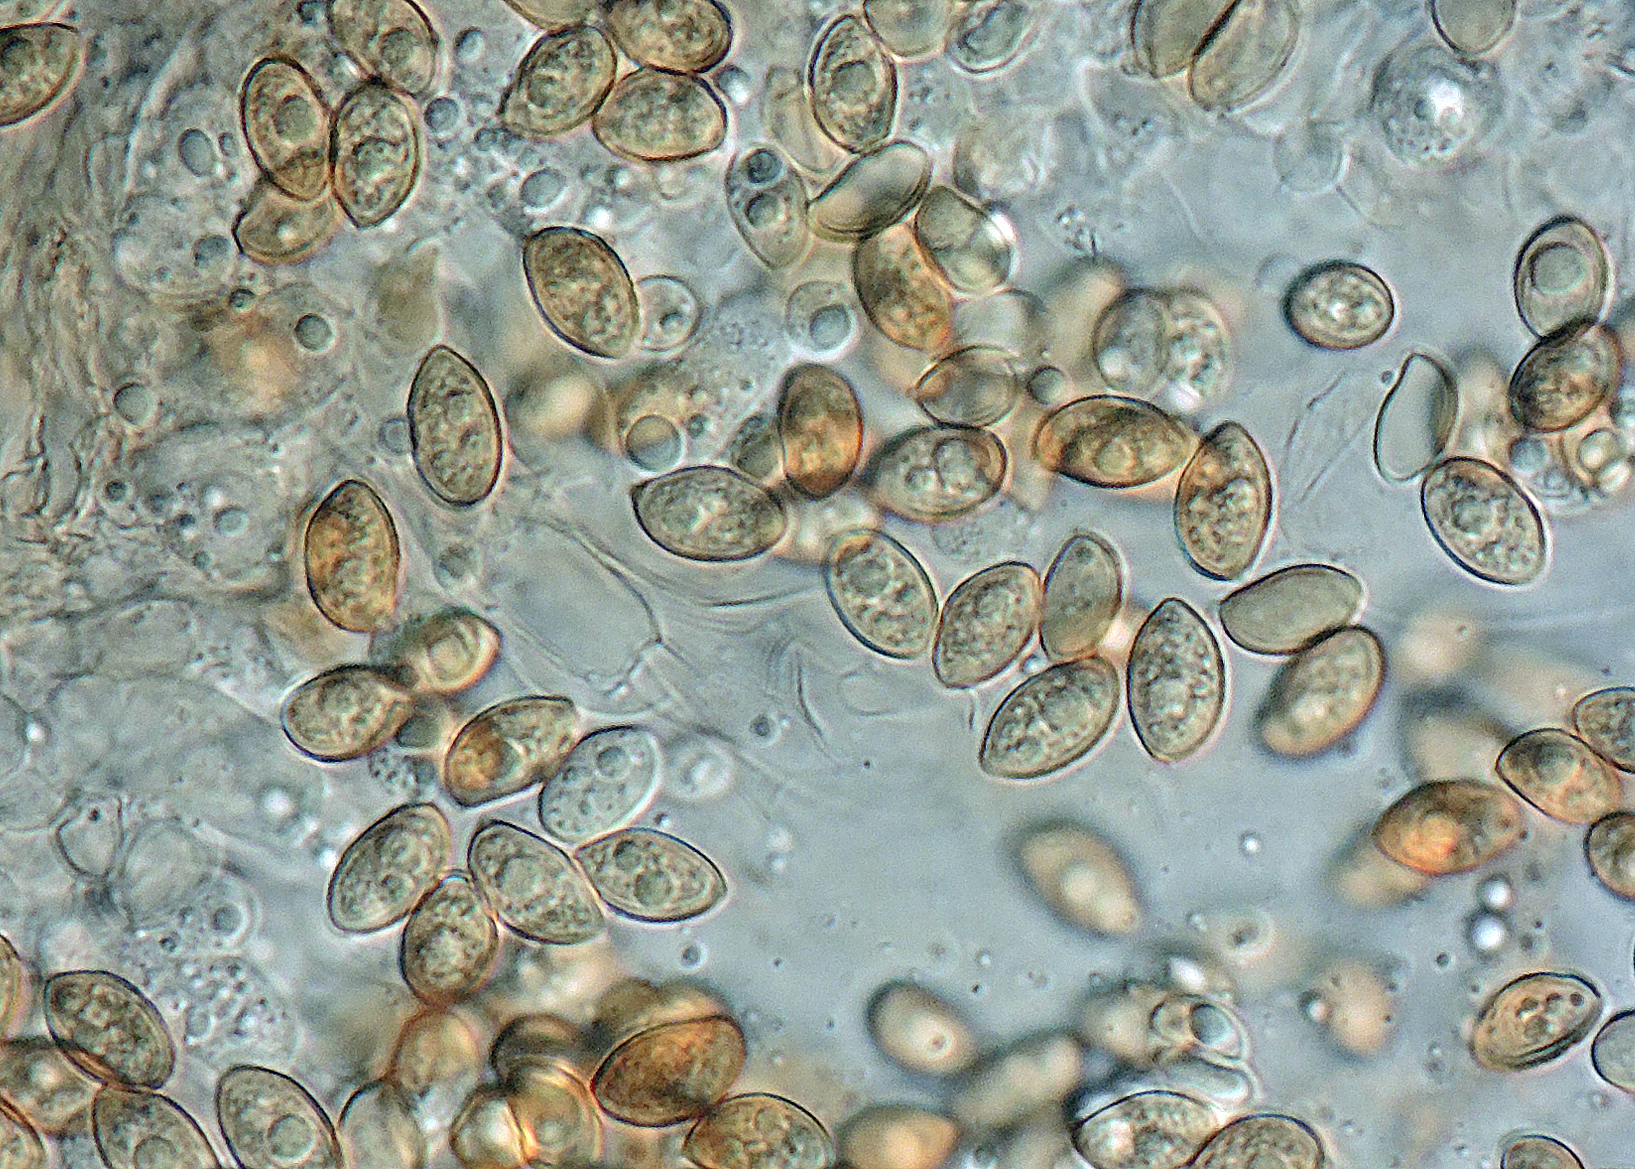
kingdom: Fungi
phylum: Basidiomycota
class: Agaricomycetes
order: Agaricales
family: Hymenogastraceae
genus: Galerina
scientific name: Galerina mniophila
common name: olivengul hjelmhat
